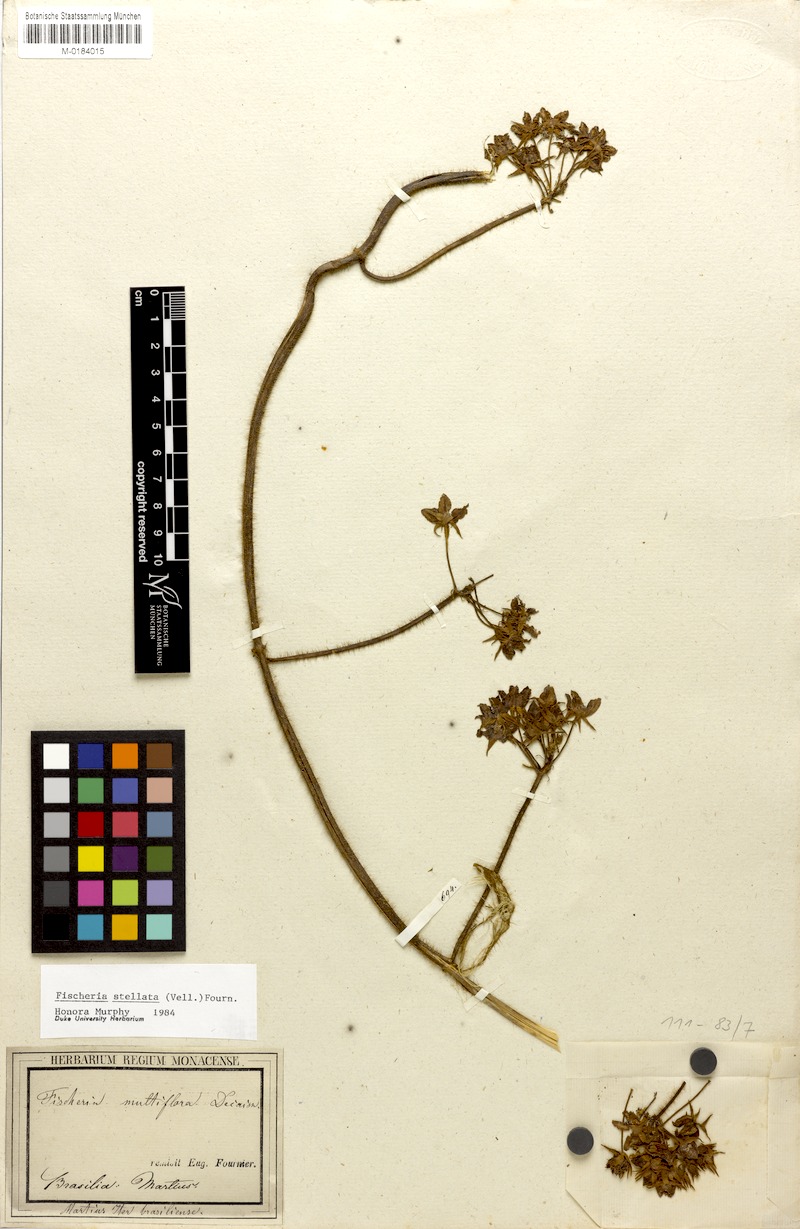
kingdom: Plantae
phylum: Tracheophyta
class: Magnoliopsida
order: Gentianales
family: Apocynaceae
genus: Fischeria
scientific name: Fischeria stellata
